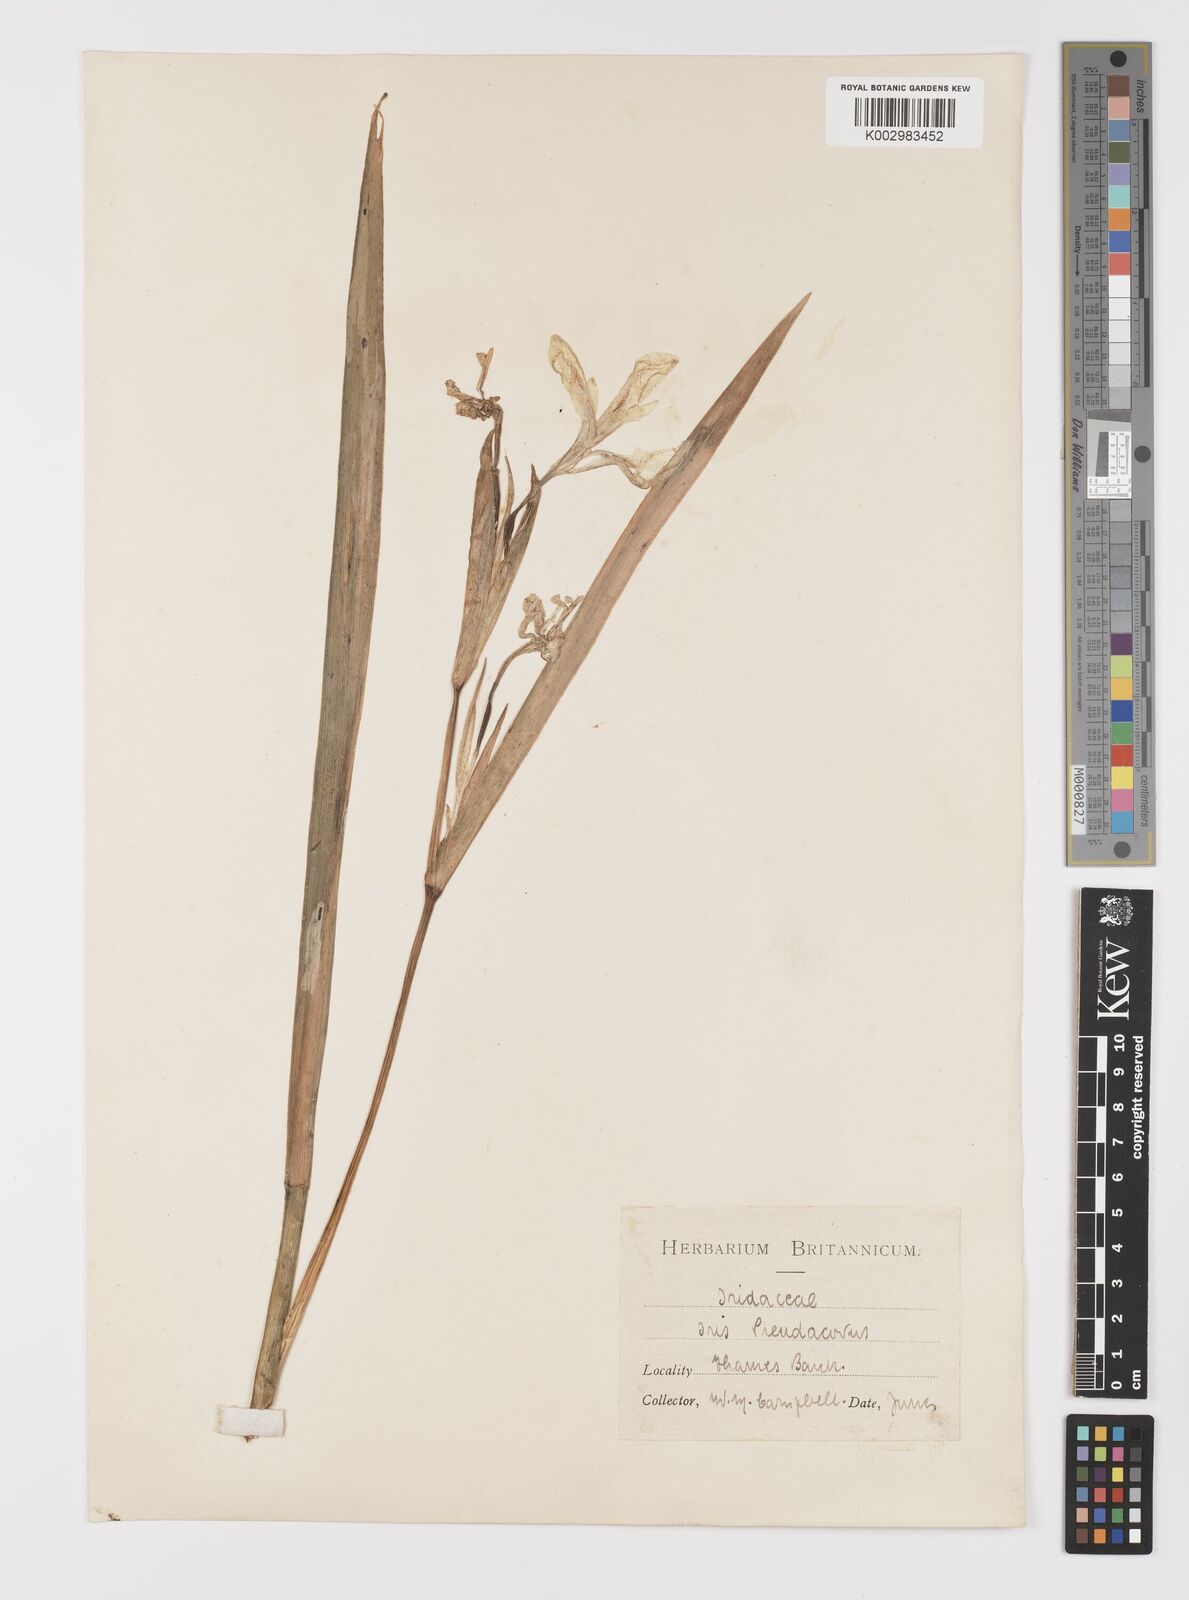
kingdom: Plantae
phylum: Tracheophyta
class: Liliopsida
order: Asparagales
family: Iridaceae
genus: Iris
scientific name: Iris pseudacorus
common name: Yellow flag
